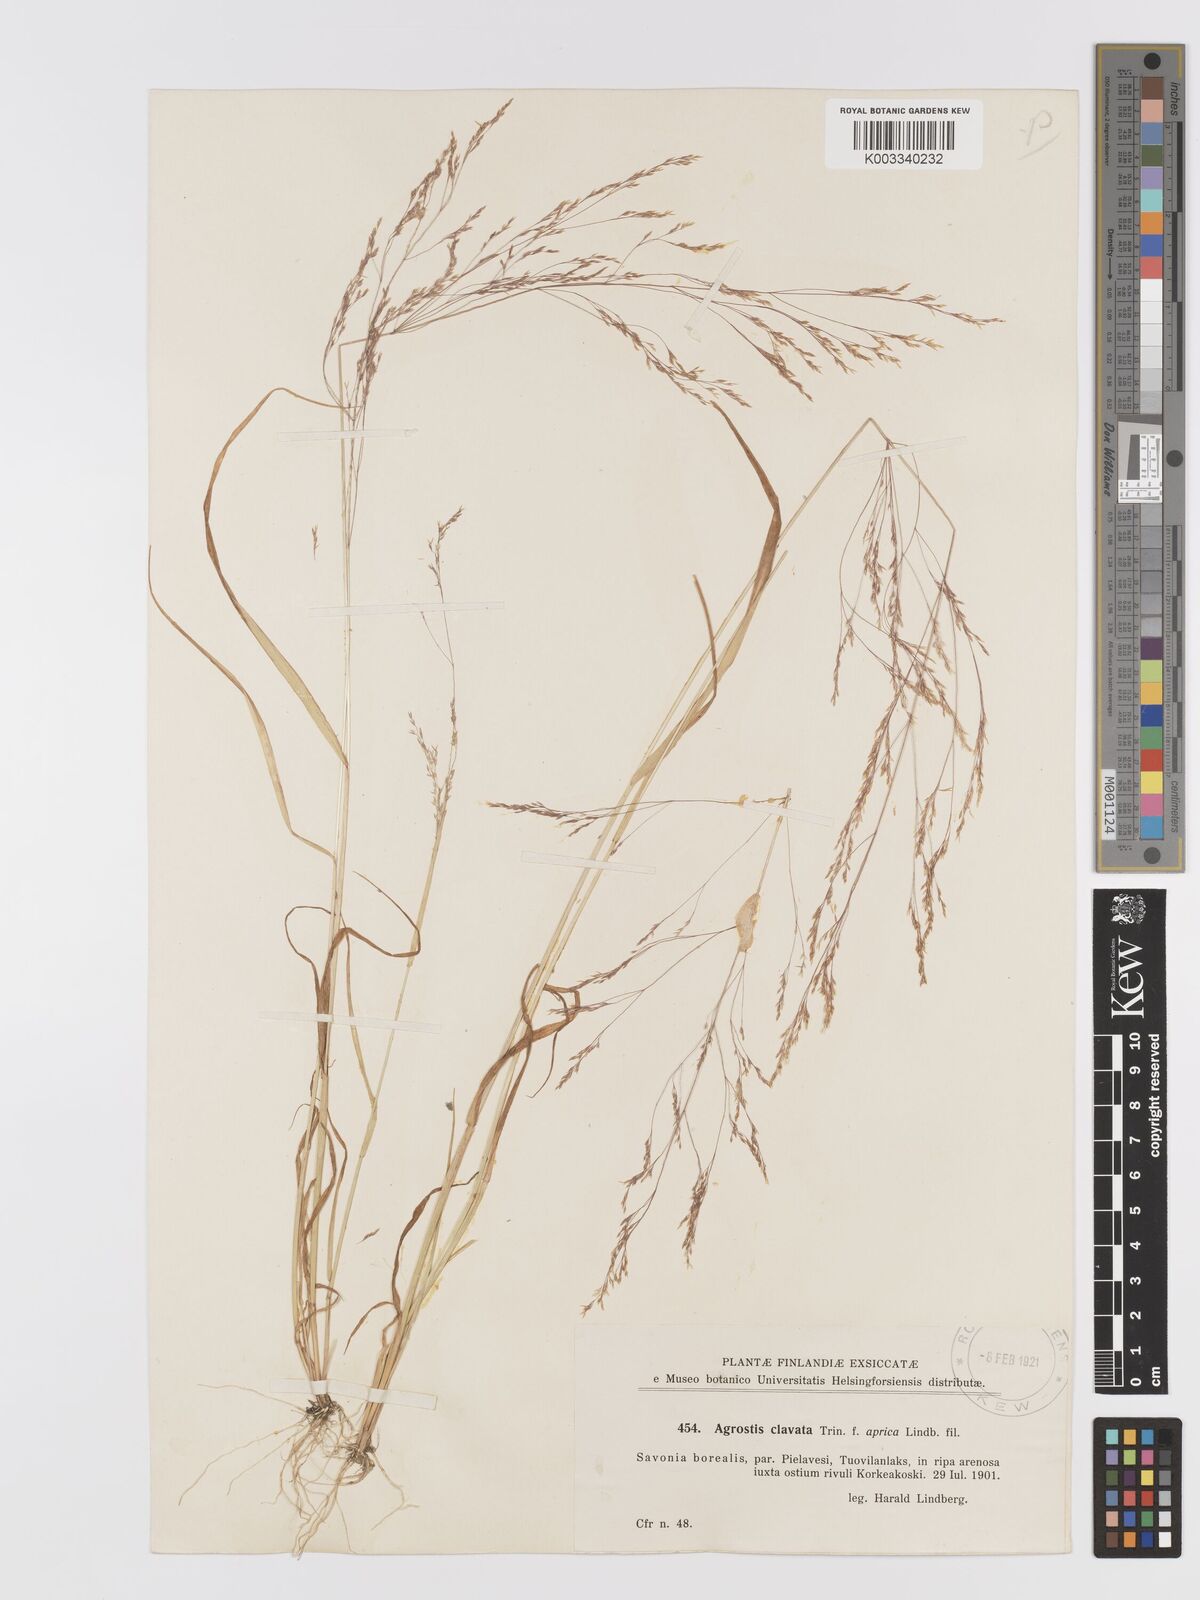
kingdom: Plantae
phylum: Tracheophyta
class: Liliopsida
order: Poales
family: Poaceae
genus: Agrostis
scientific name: Agrostis clavata
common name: Clavate bent
